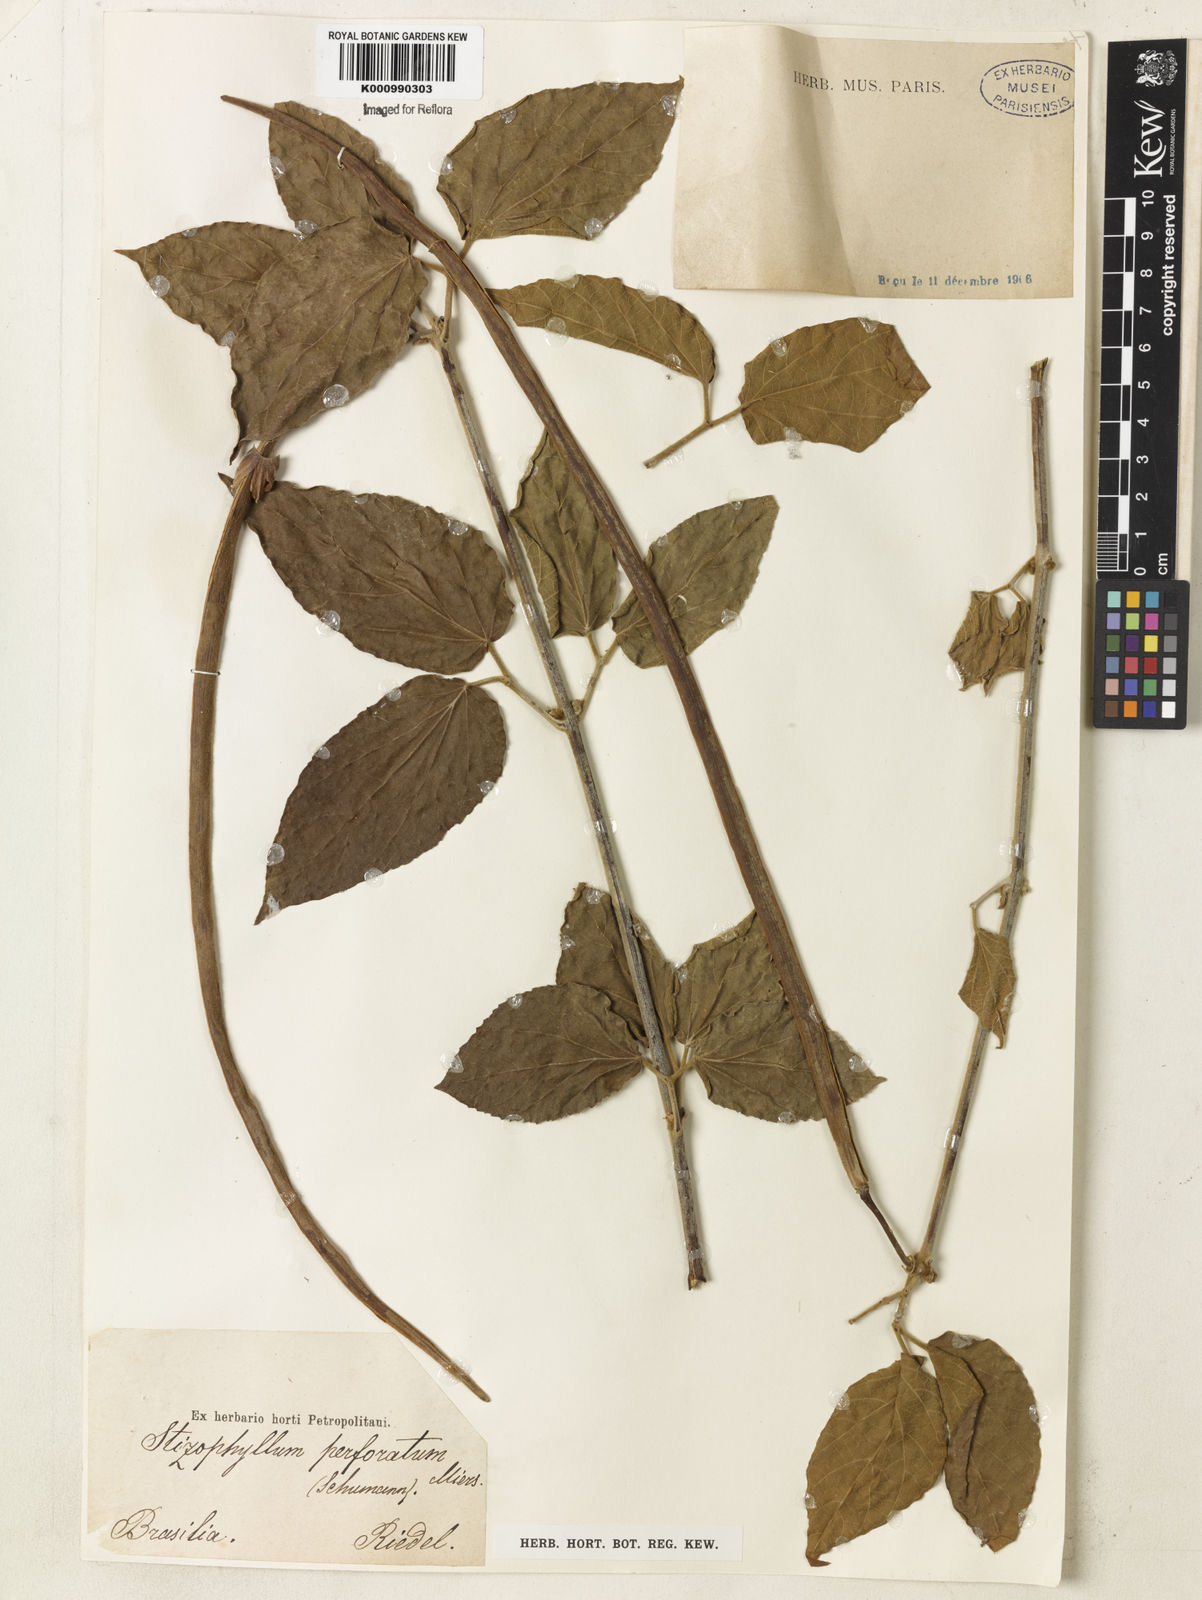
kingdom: Plantae
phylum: Tracheophyta
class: Magnoliopsida
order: Lamiales
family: Bignoniaceae
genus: Stizophyllum
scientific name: Stizophyllum perforatum
